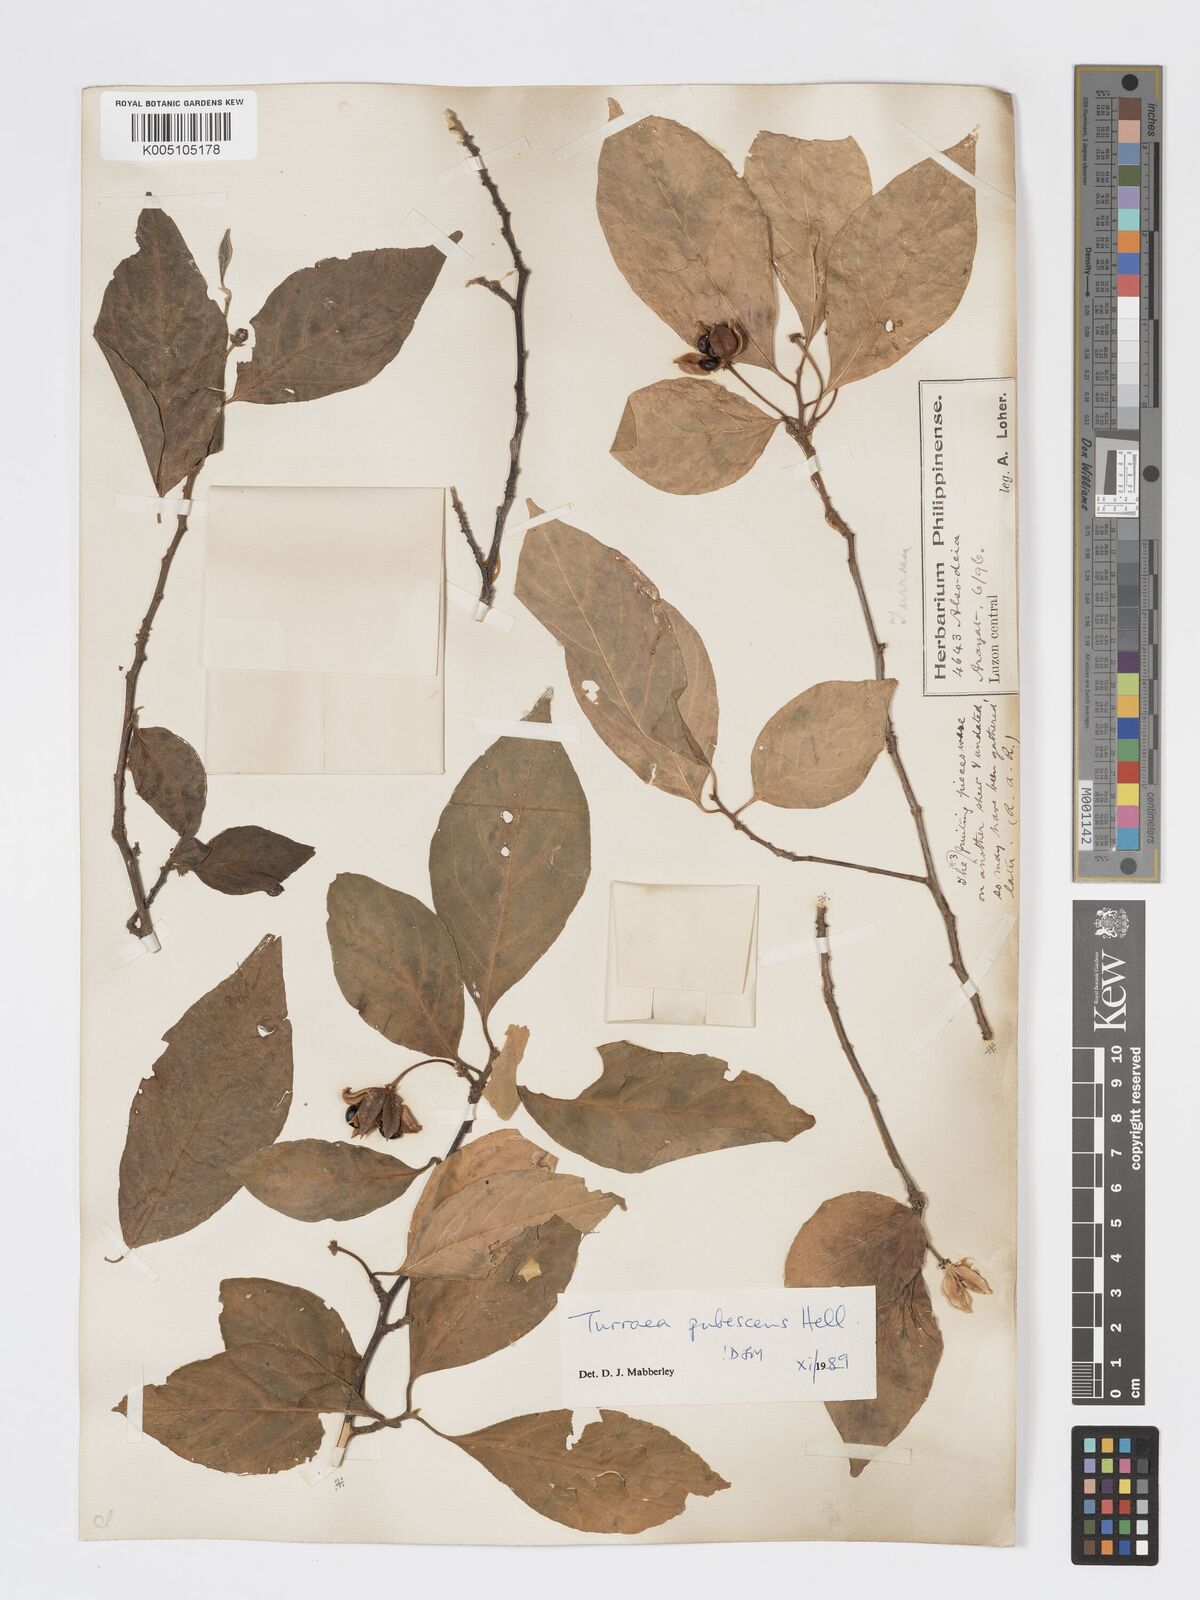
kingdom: Plantae
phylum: Tracheophyta
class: Magnoliopsida
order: Sapindales
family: Meliaceae
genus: Turraea
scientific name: Turraea
